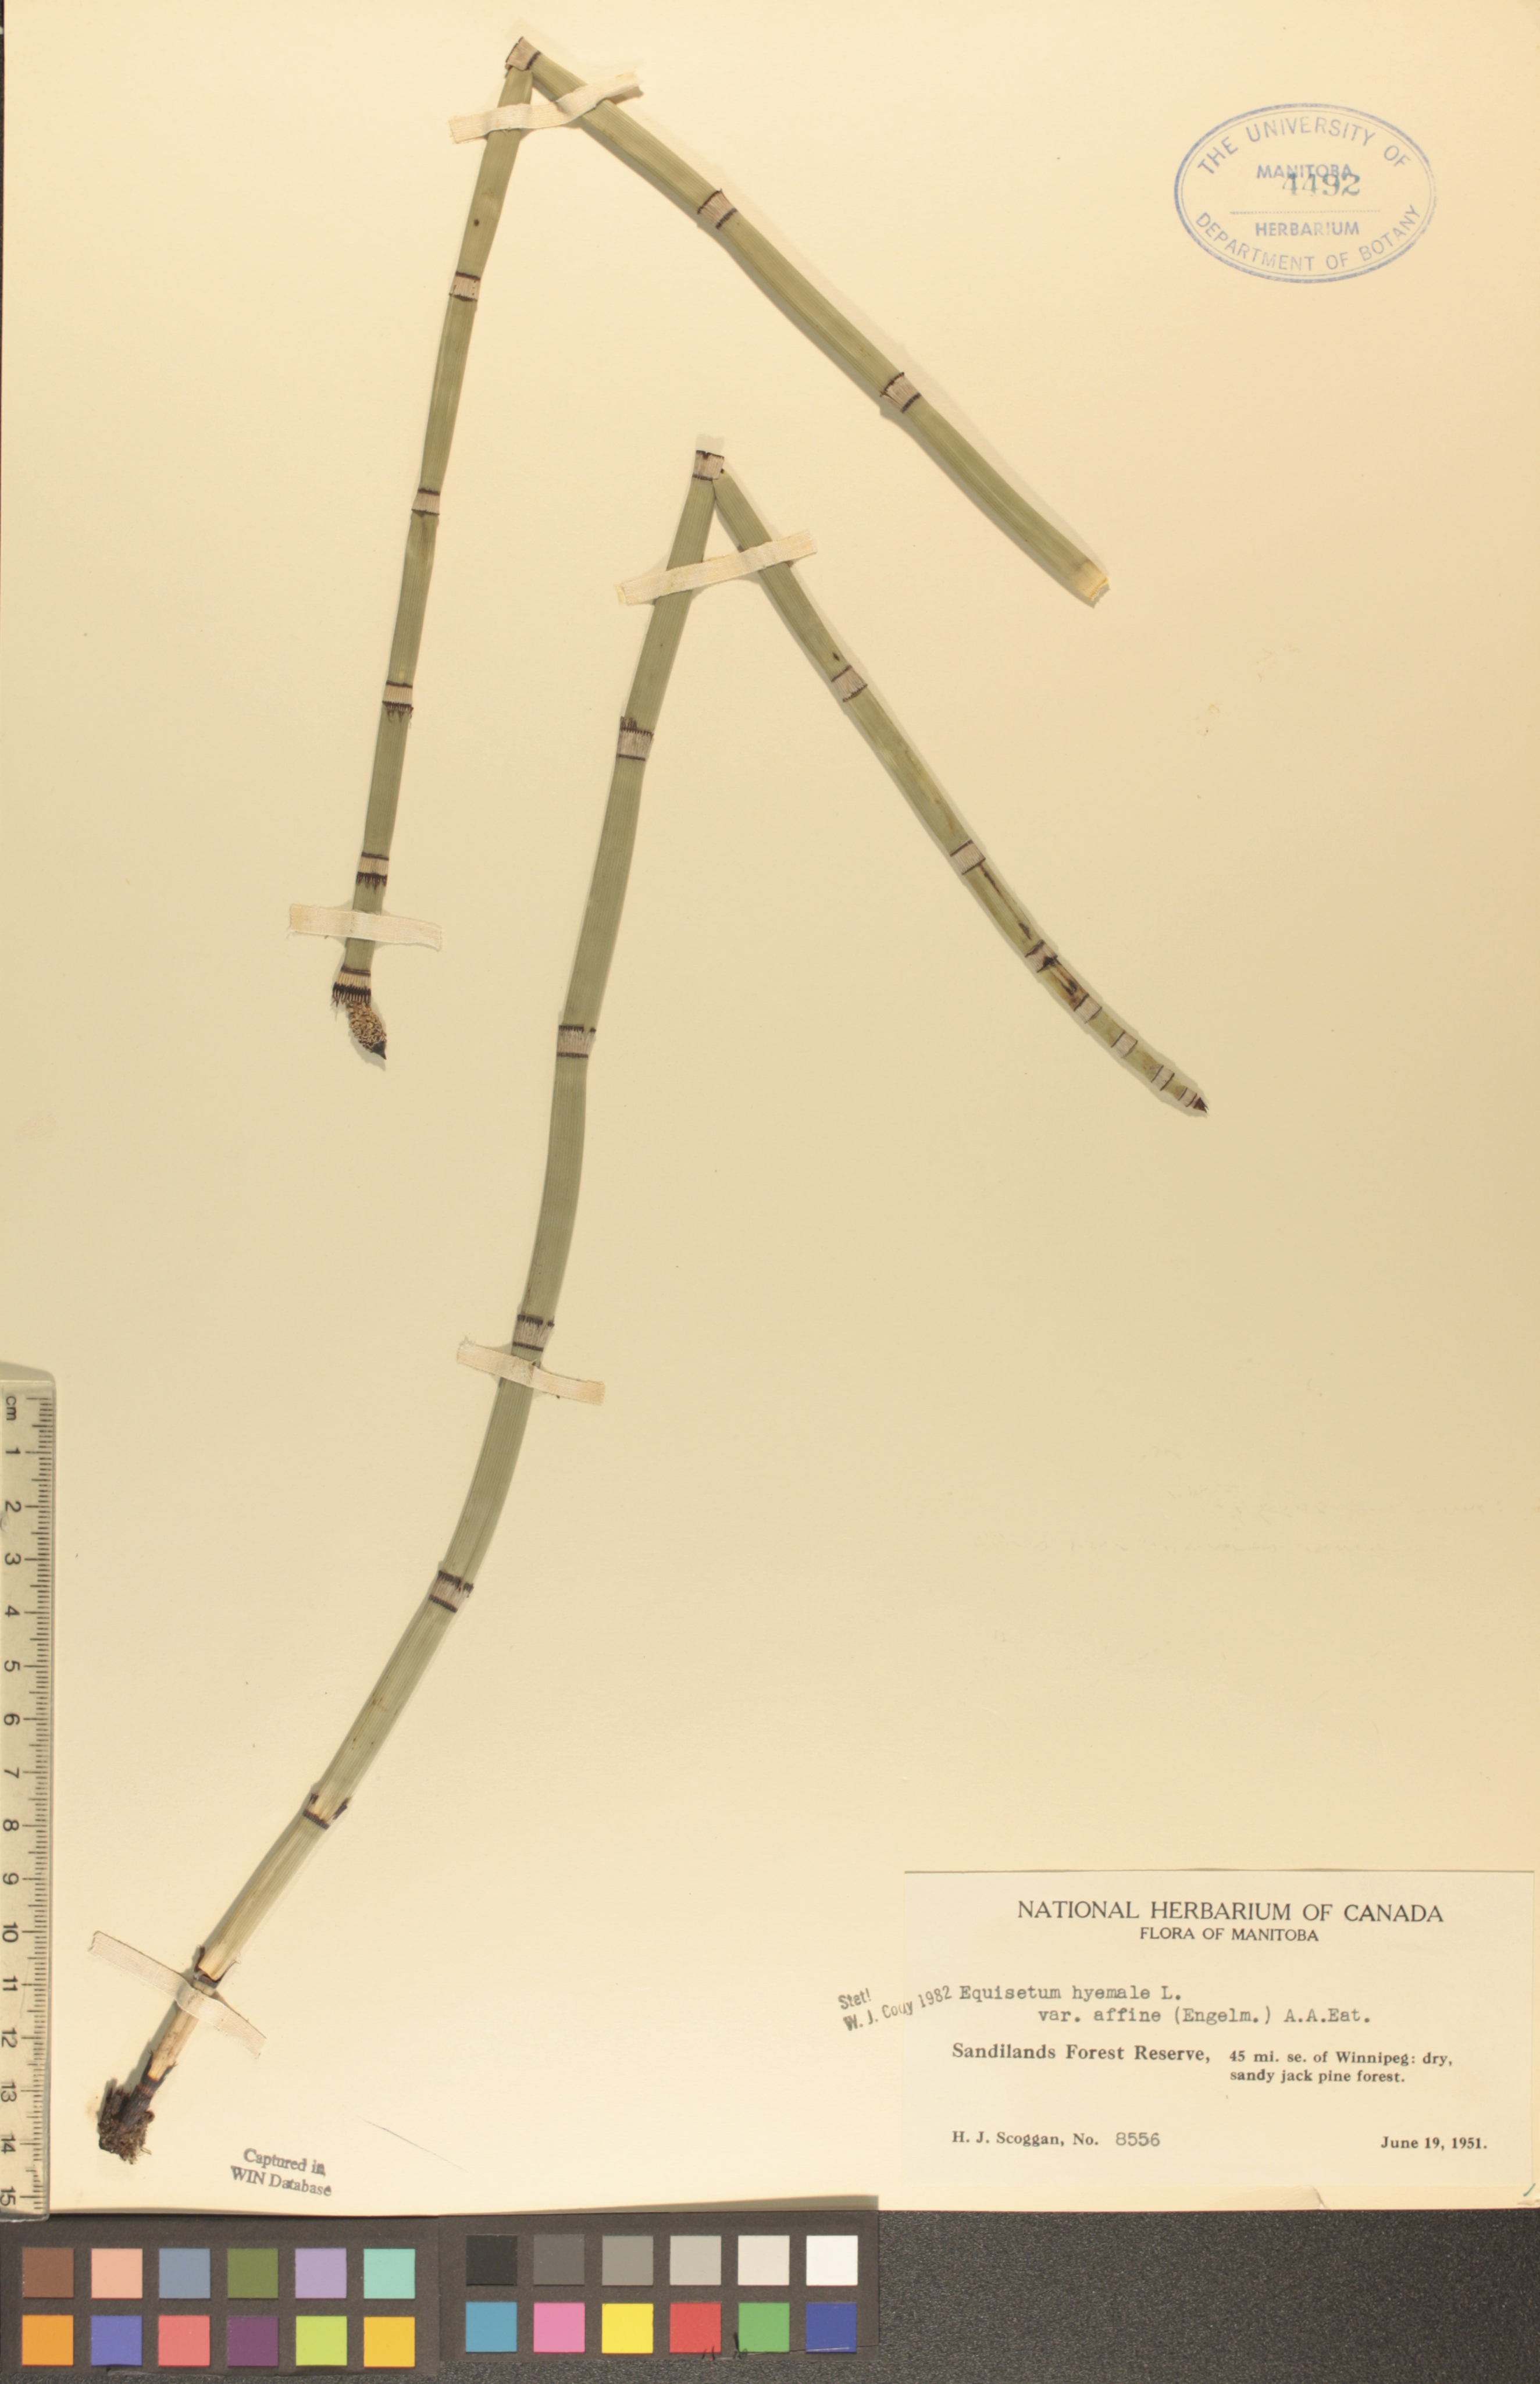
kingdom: Plantae
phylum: Tracheophyta
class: Polypodiopsida
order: Equisetales
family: Equisetaceae
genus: Equisetum
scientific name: Equisetum praealtum
